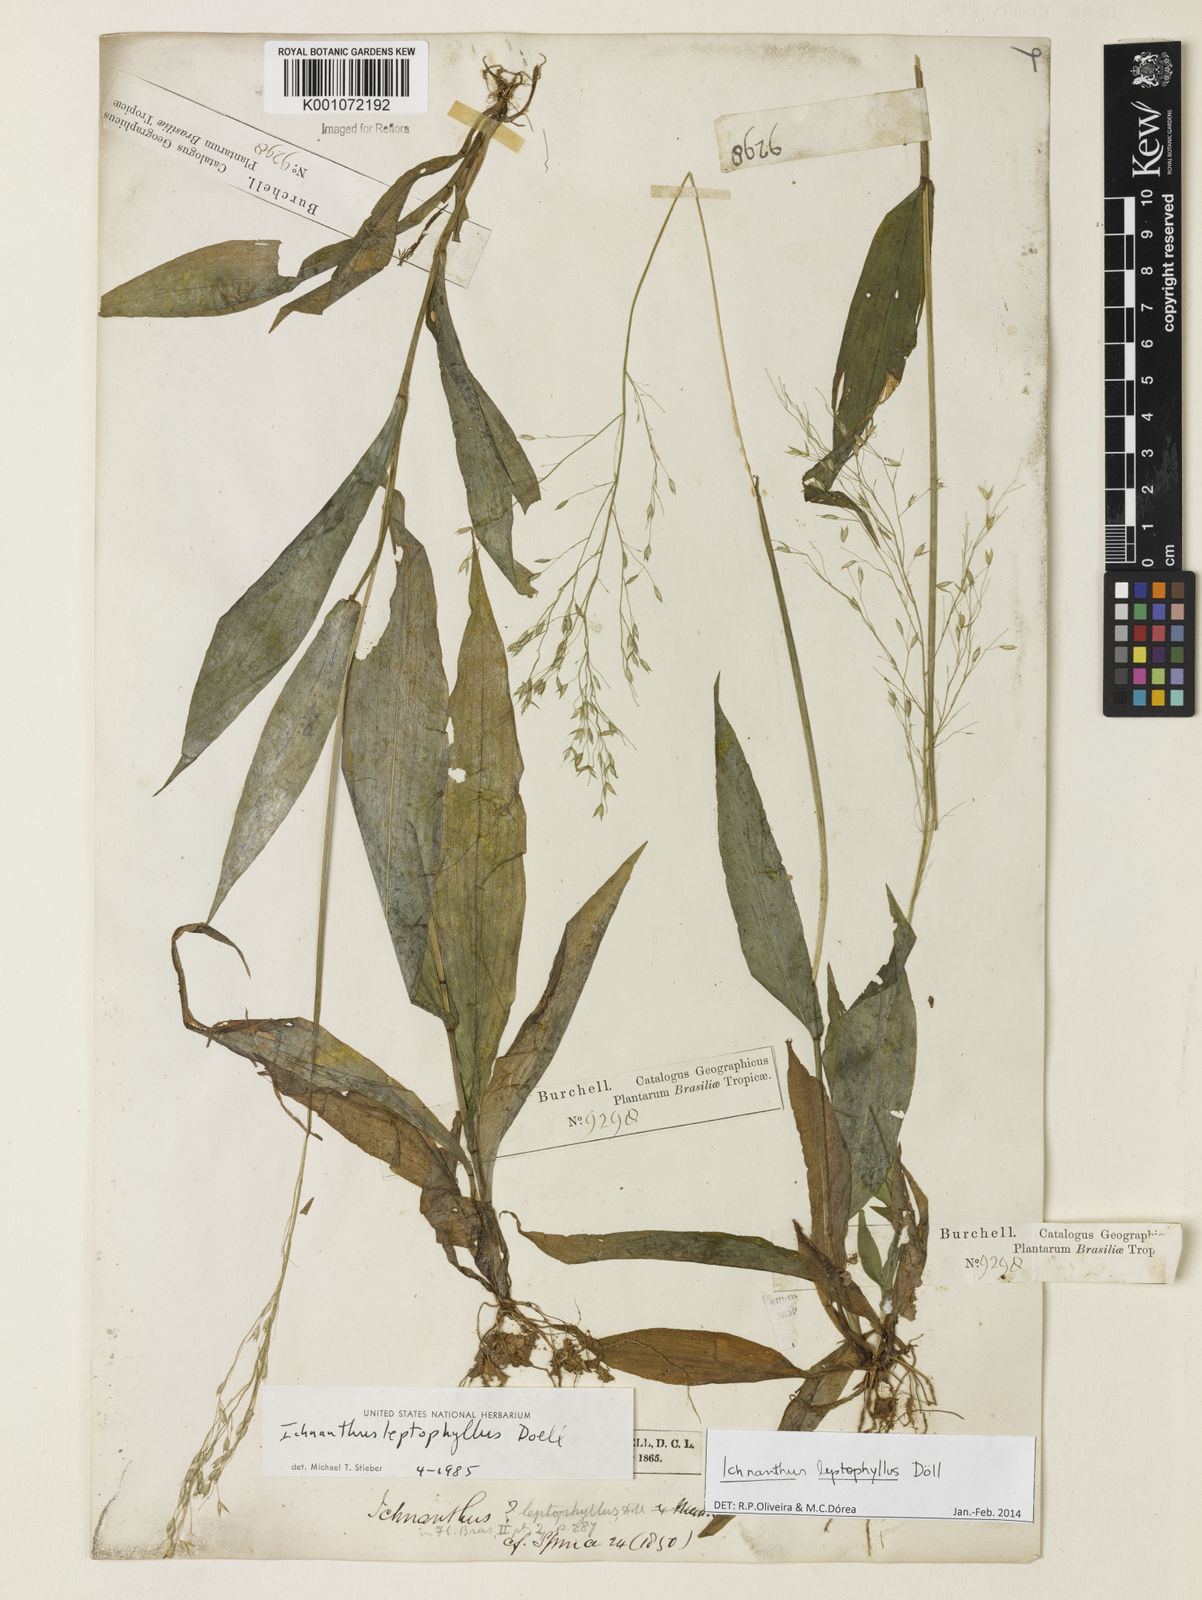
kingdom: Plantae
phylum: Tracheophyta
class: Liliopsida
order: Poales
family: Poaceae
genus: Ichnanthus
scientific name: Ichnanthus
